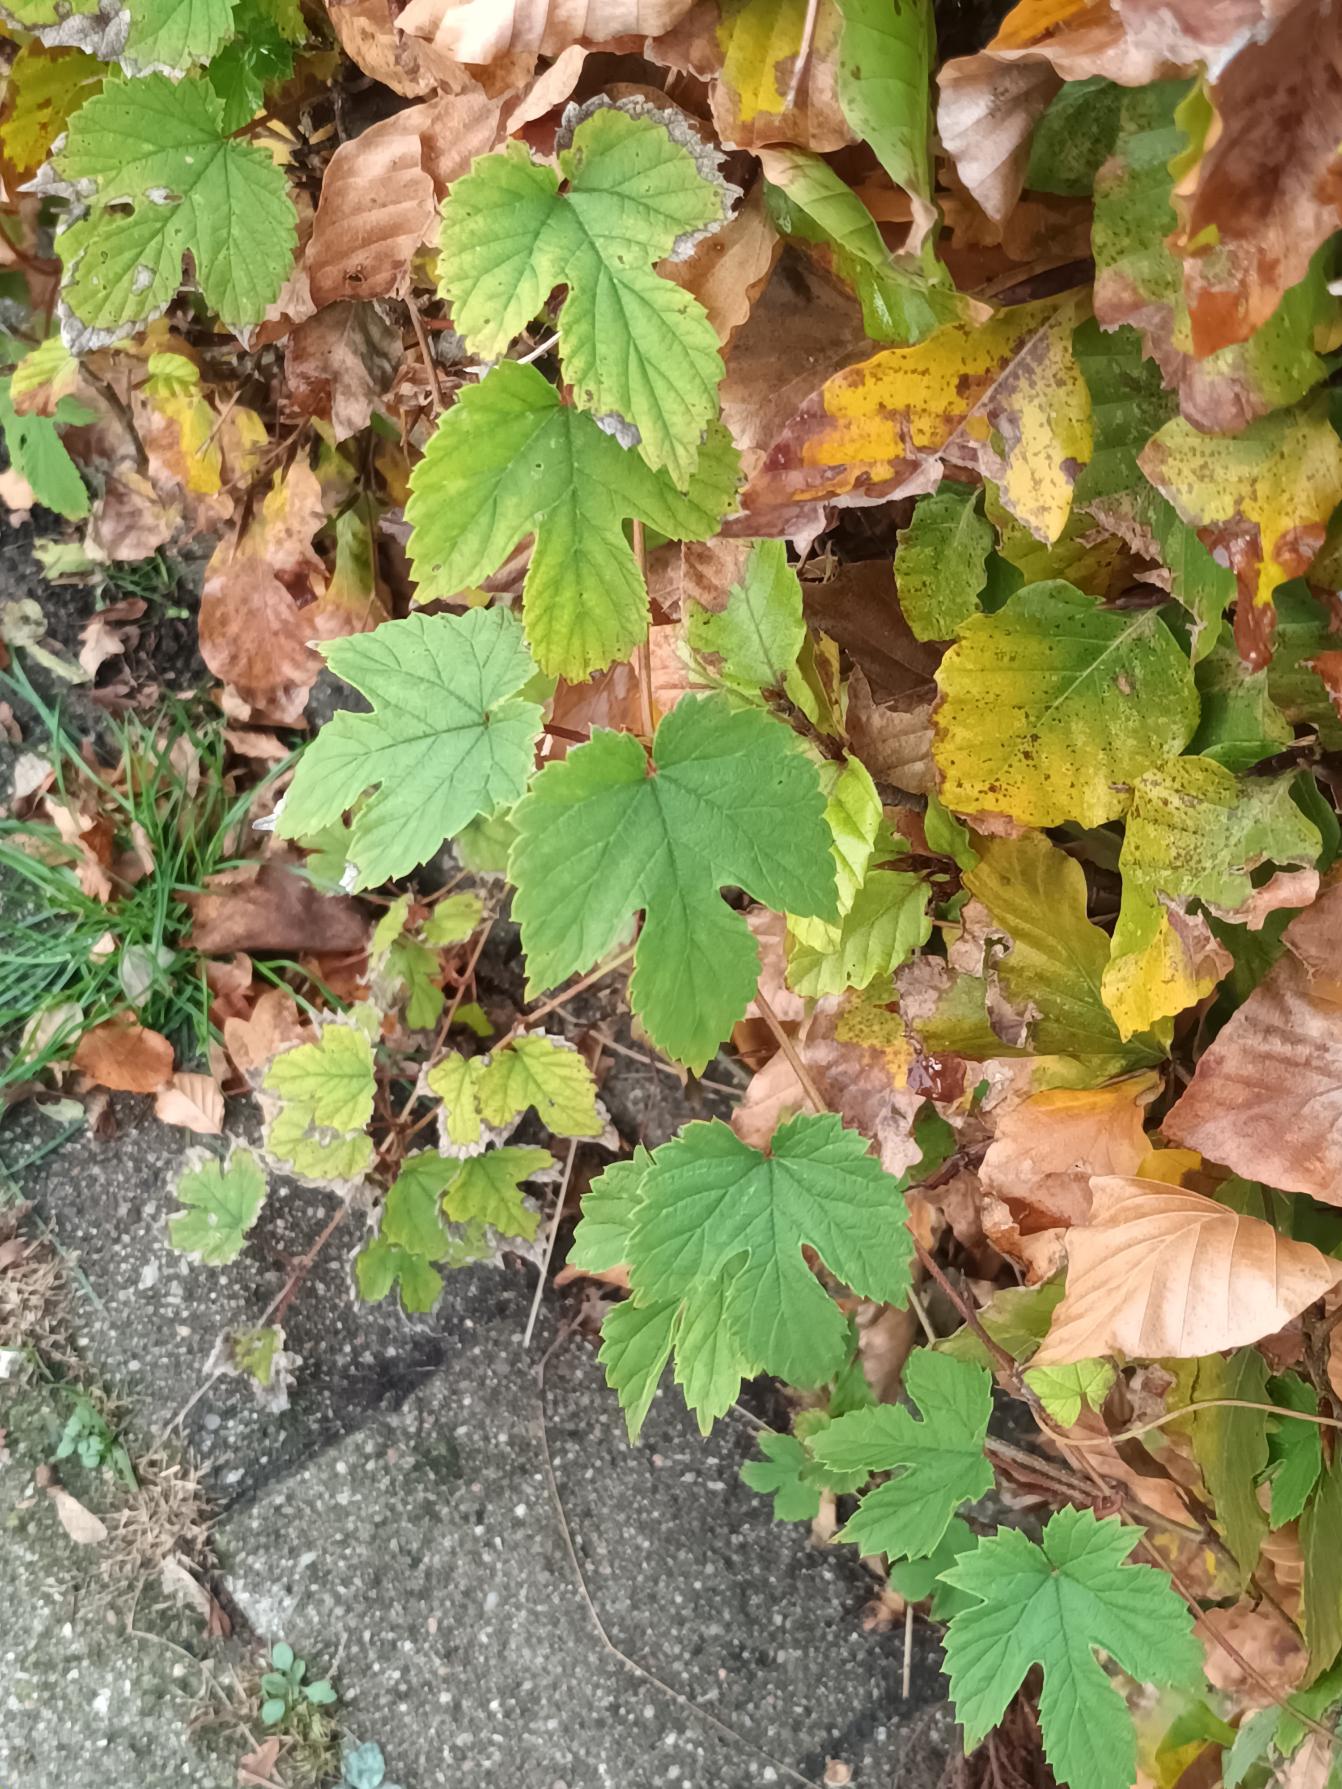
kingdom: Plantae
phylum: Tracheophyta
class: Magnoliopsida
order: Rosales
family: Cannabaceae
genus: Humulus
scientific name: Humulus lupulus
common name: Humle
